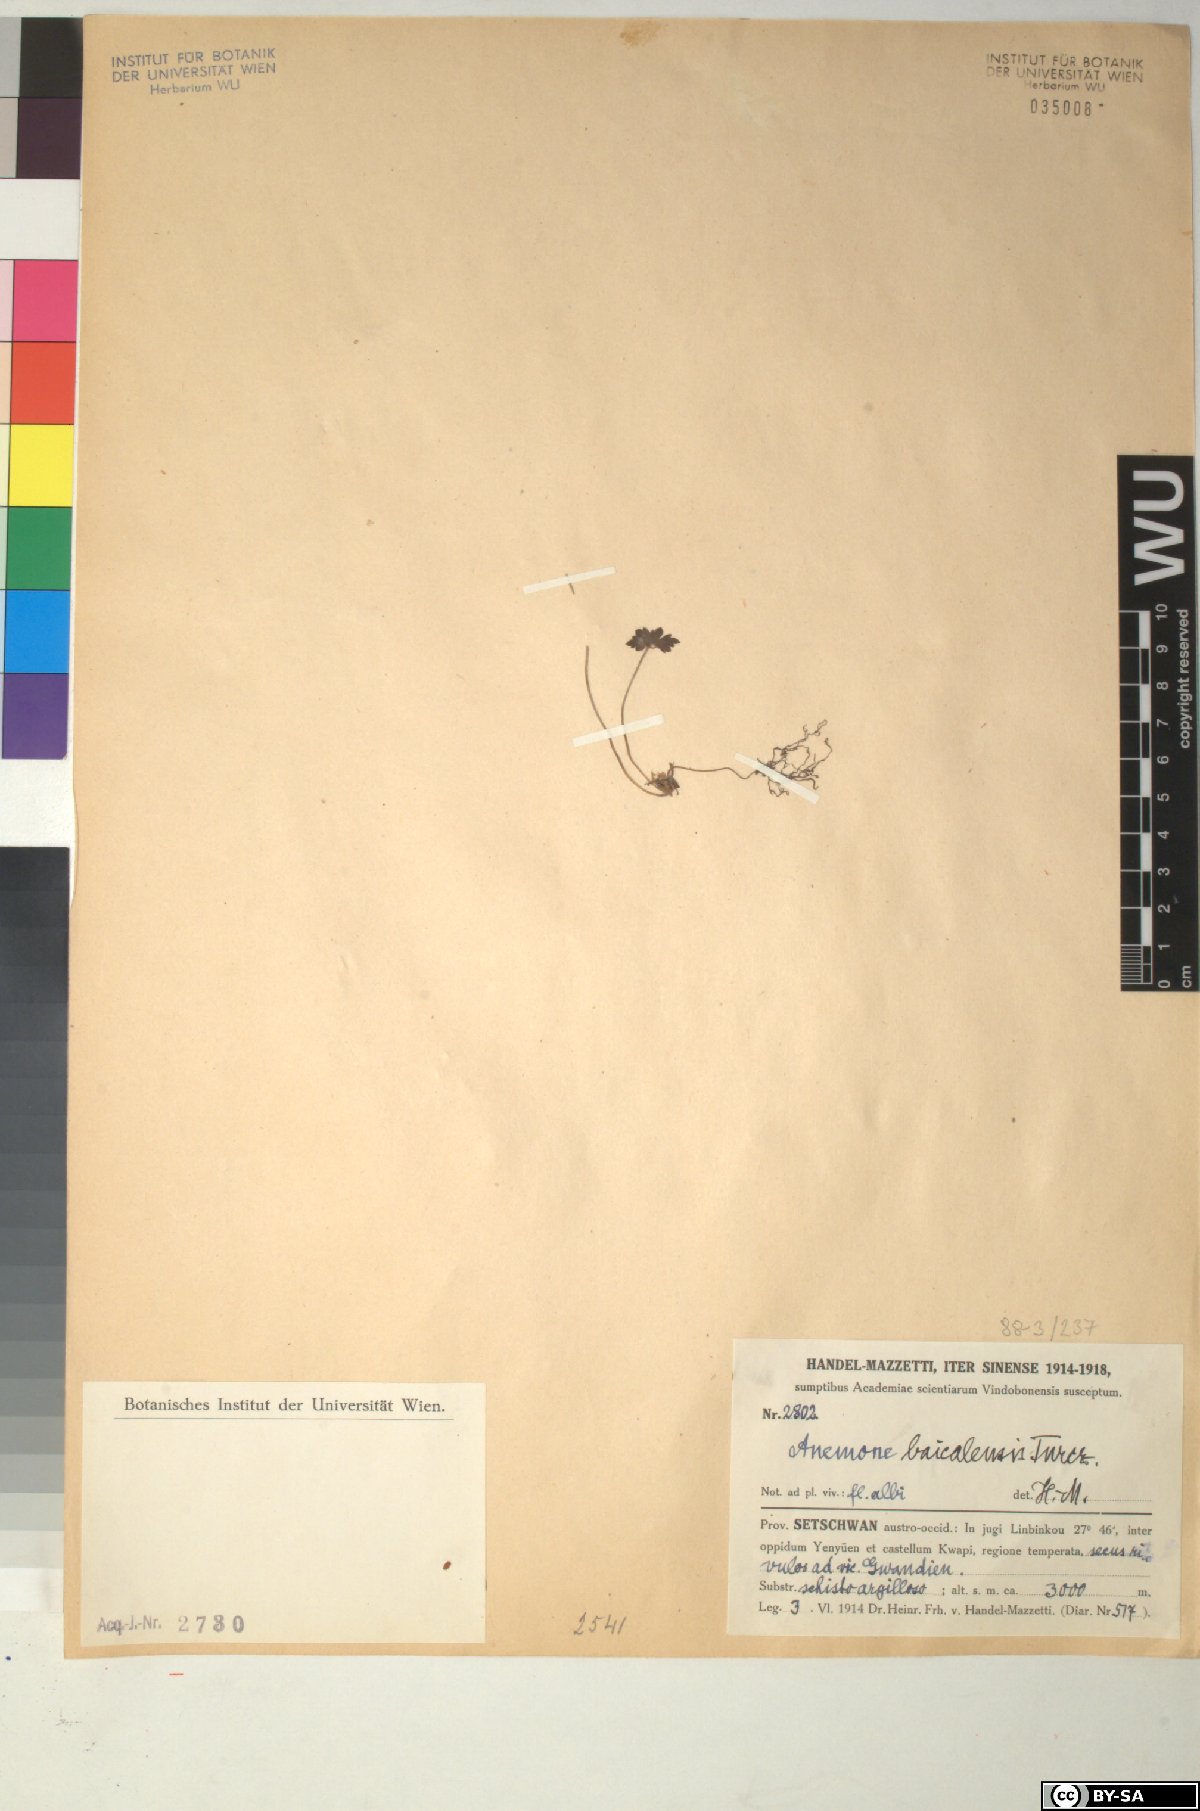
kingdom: Plantae
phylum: Tracheophyta
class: Magnoliopsida
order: Ranunculales
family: Ranunculaceae
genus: Anemonastrum
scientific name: Anemonastrum baicalense
